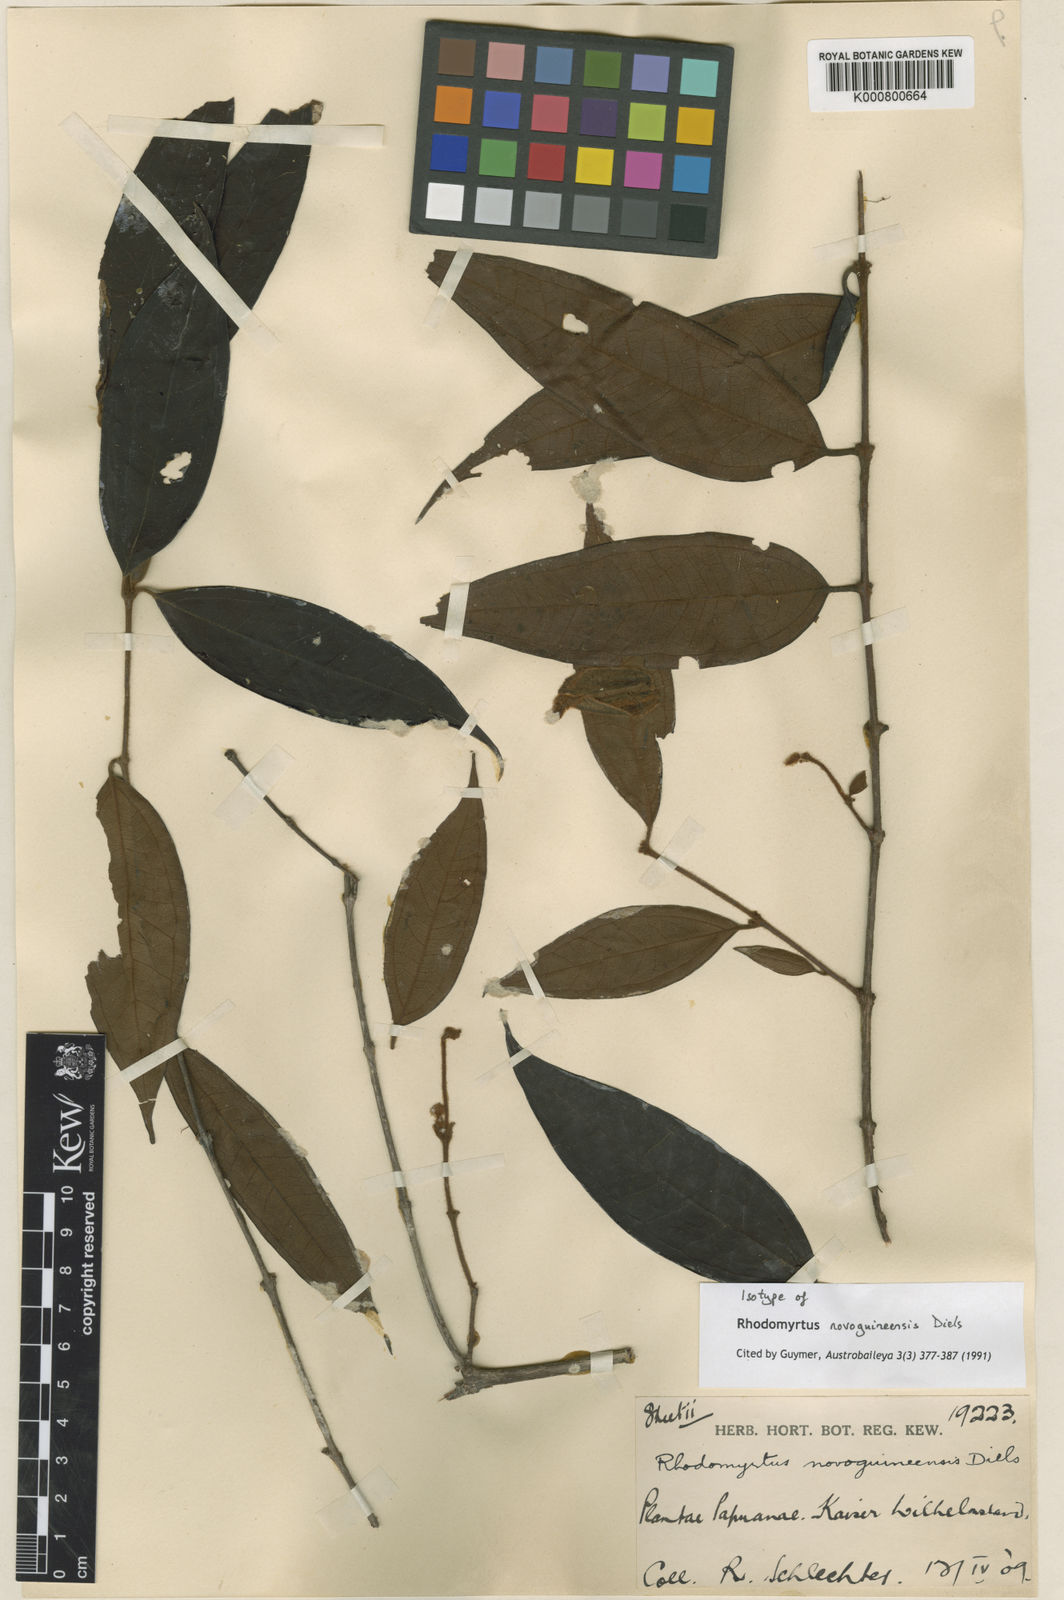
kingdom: Plantae
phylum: Tracheophyta
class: Magnoliopsida
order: Myrtales
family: Myrtaceae
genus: Rhodomyrtus
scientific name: Rhodomyrtus trineura
